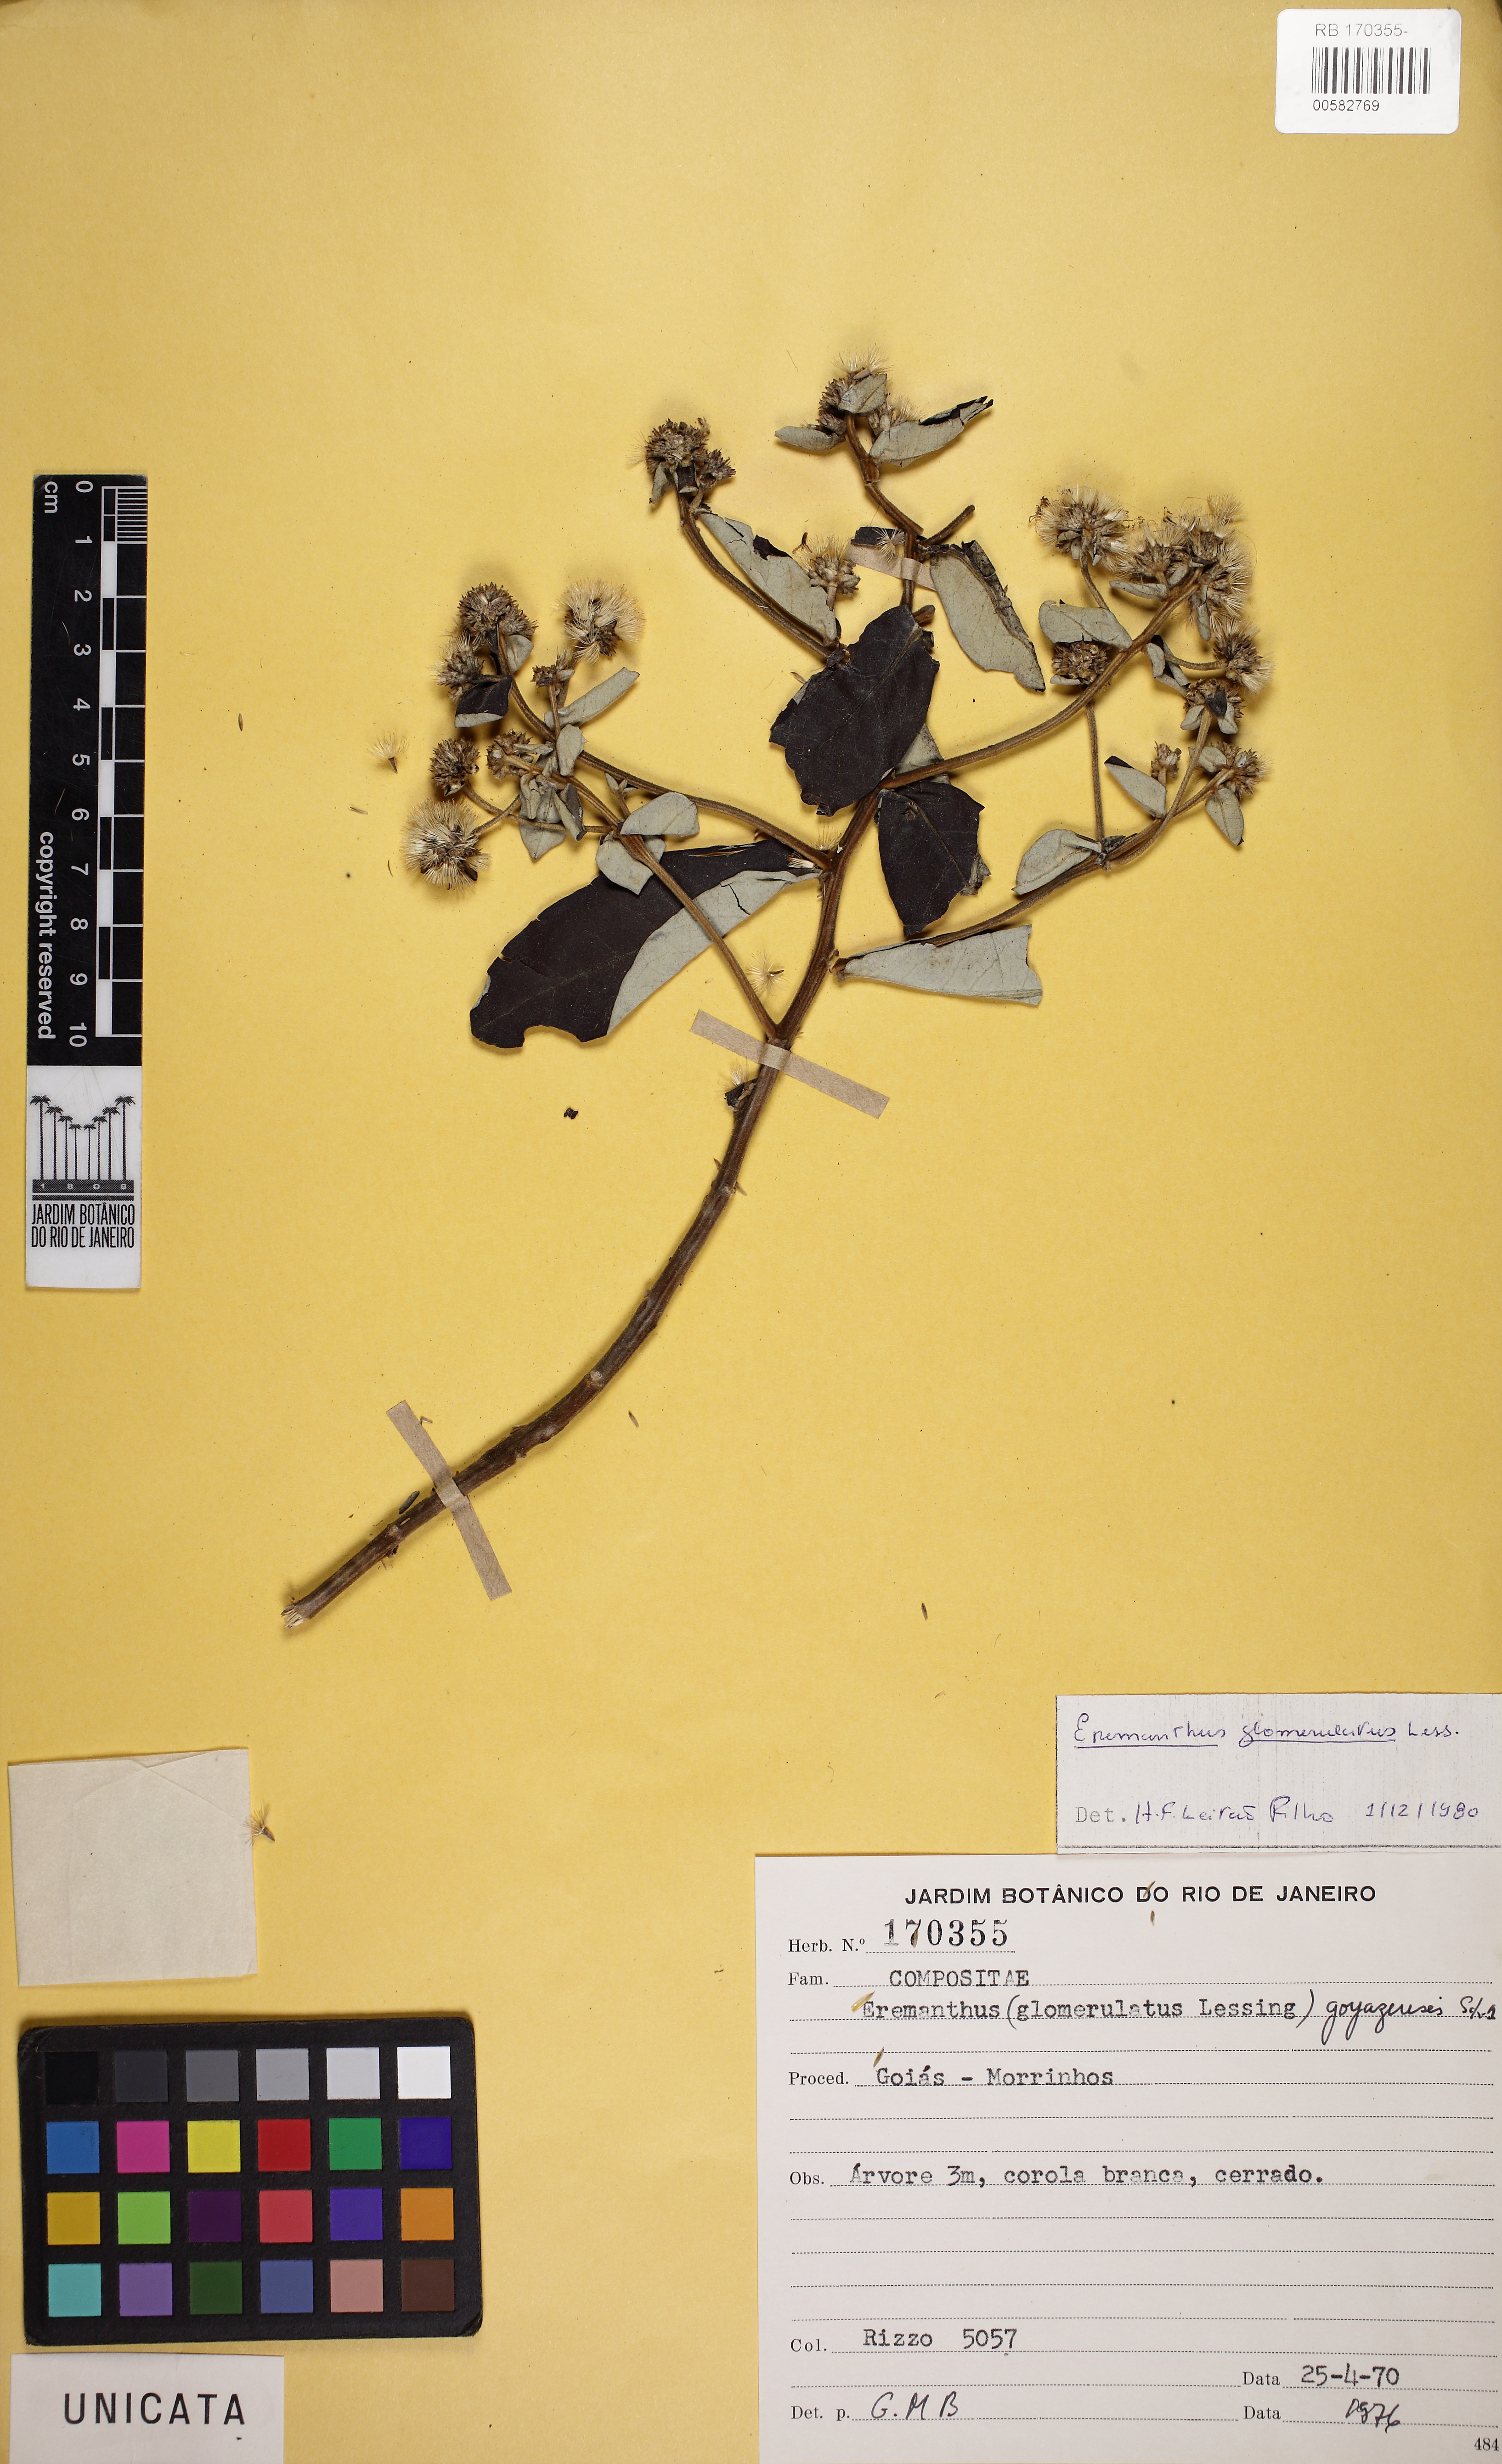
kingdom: Plantae
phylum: Tracheophyta
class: Magnoliopsida
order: Asterales
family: Asteraceae
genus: Eremanthus
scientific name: Eremanthus glomerulatus
